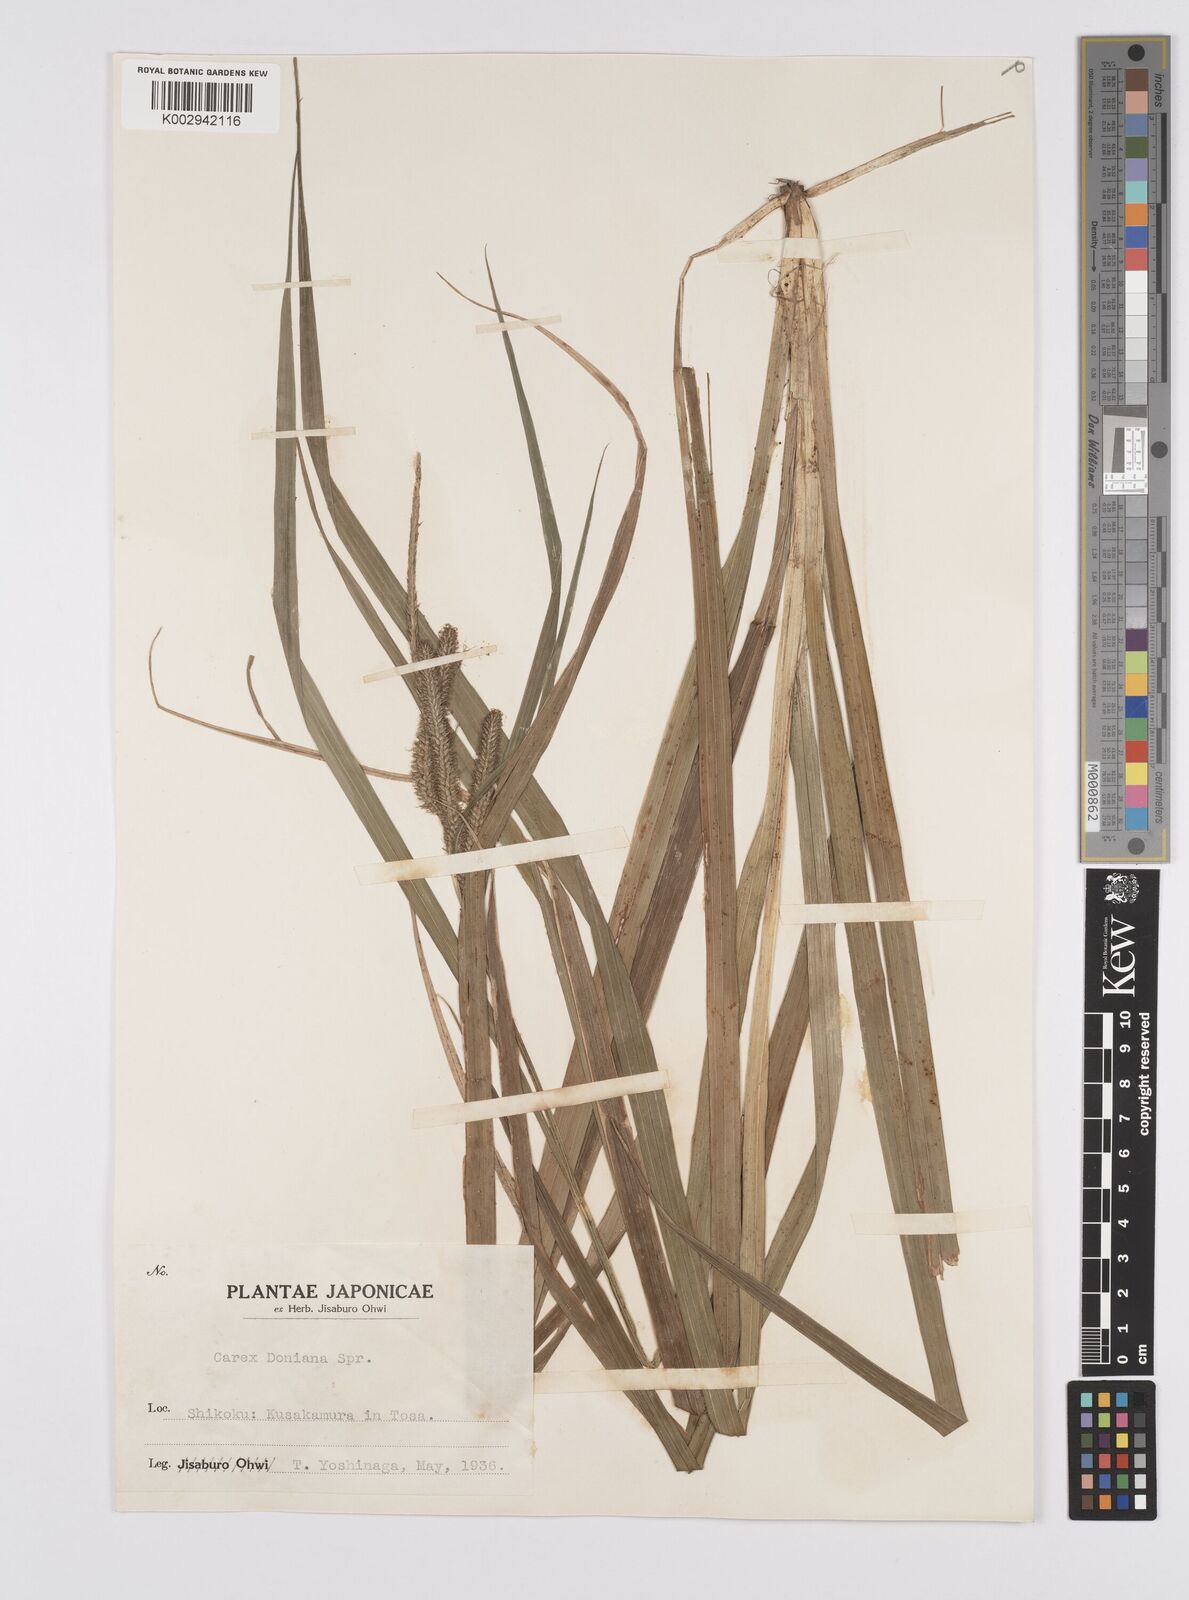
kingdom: Plantae
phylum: Tracheophyta
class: Liliopsida
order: Poales
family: Cyperaceae
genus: Carex
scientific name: Carex japonica
